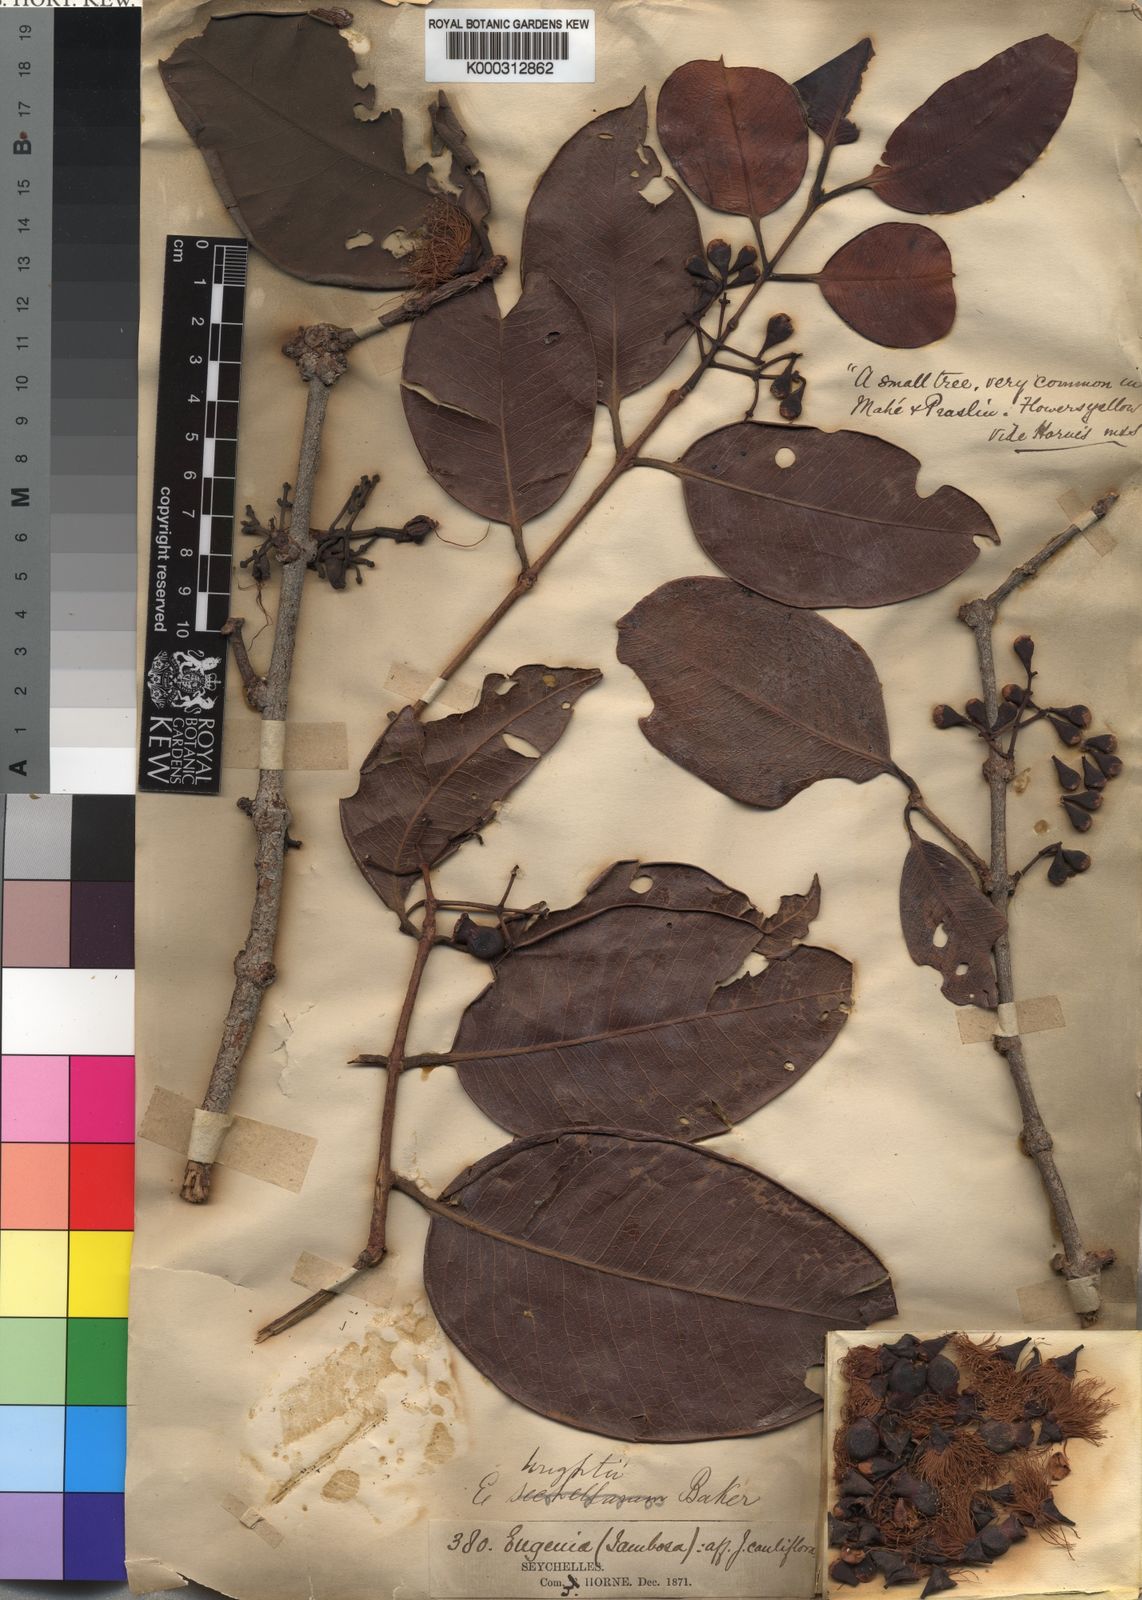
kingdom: Plantae
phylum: Tracheophyta
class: Magnoliopsida
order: Myrtales
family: Myrtaceae
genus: Syzygium
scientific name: Syzygium wrightii
